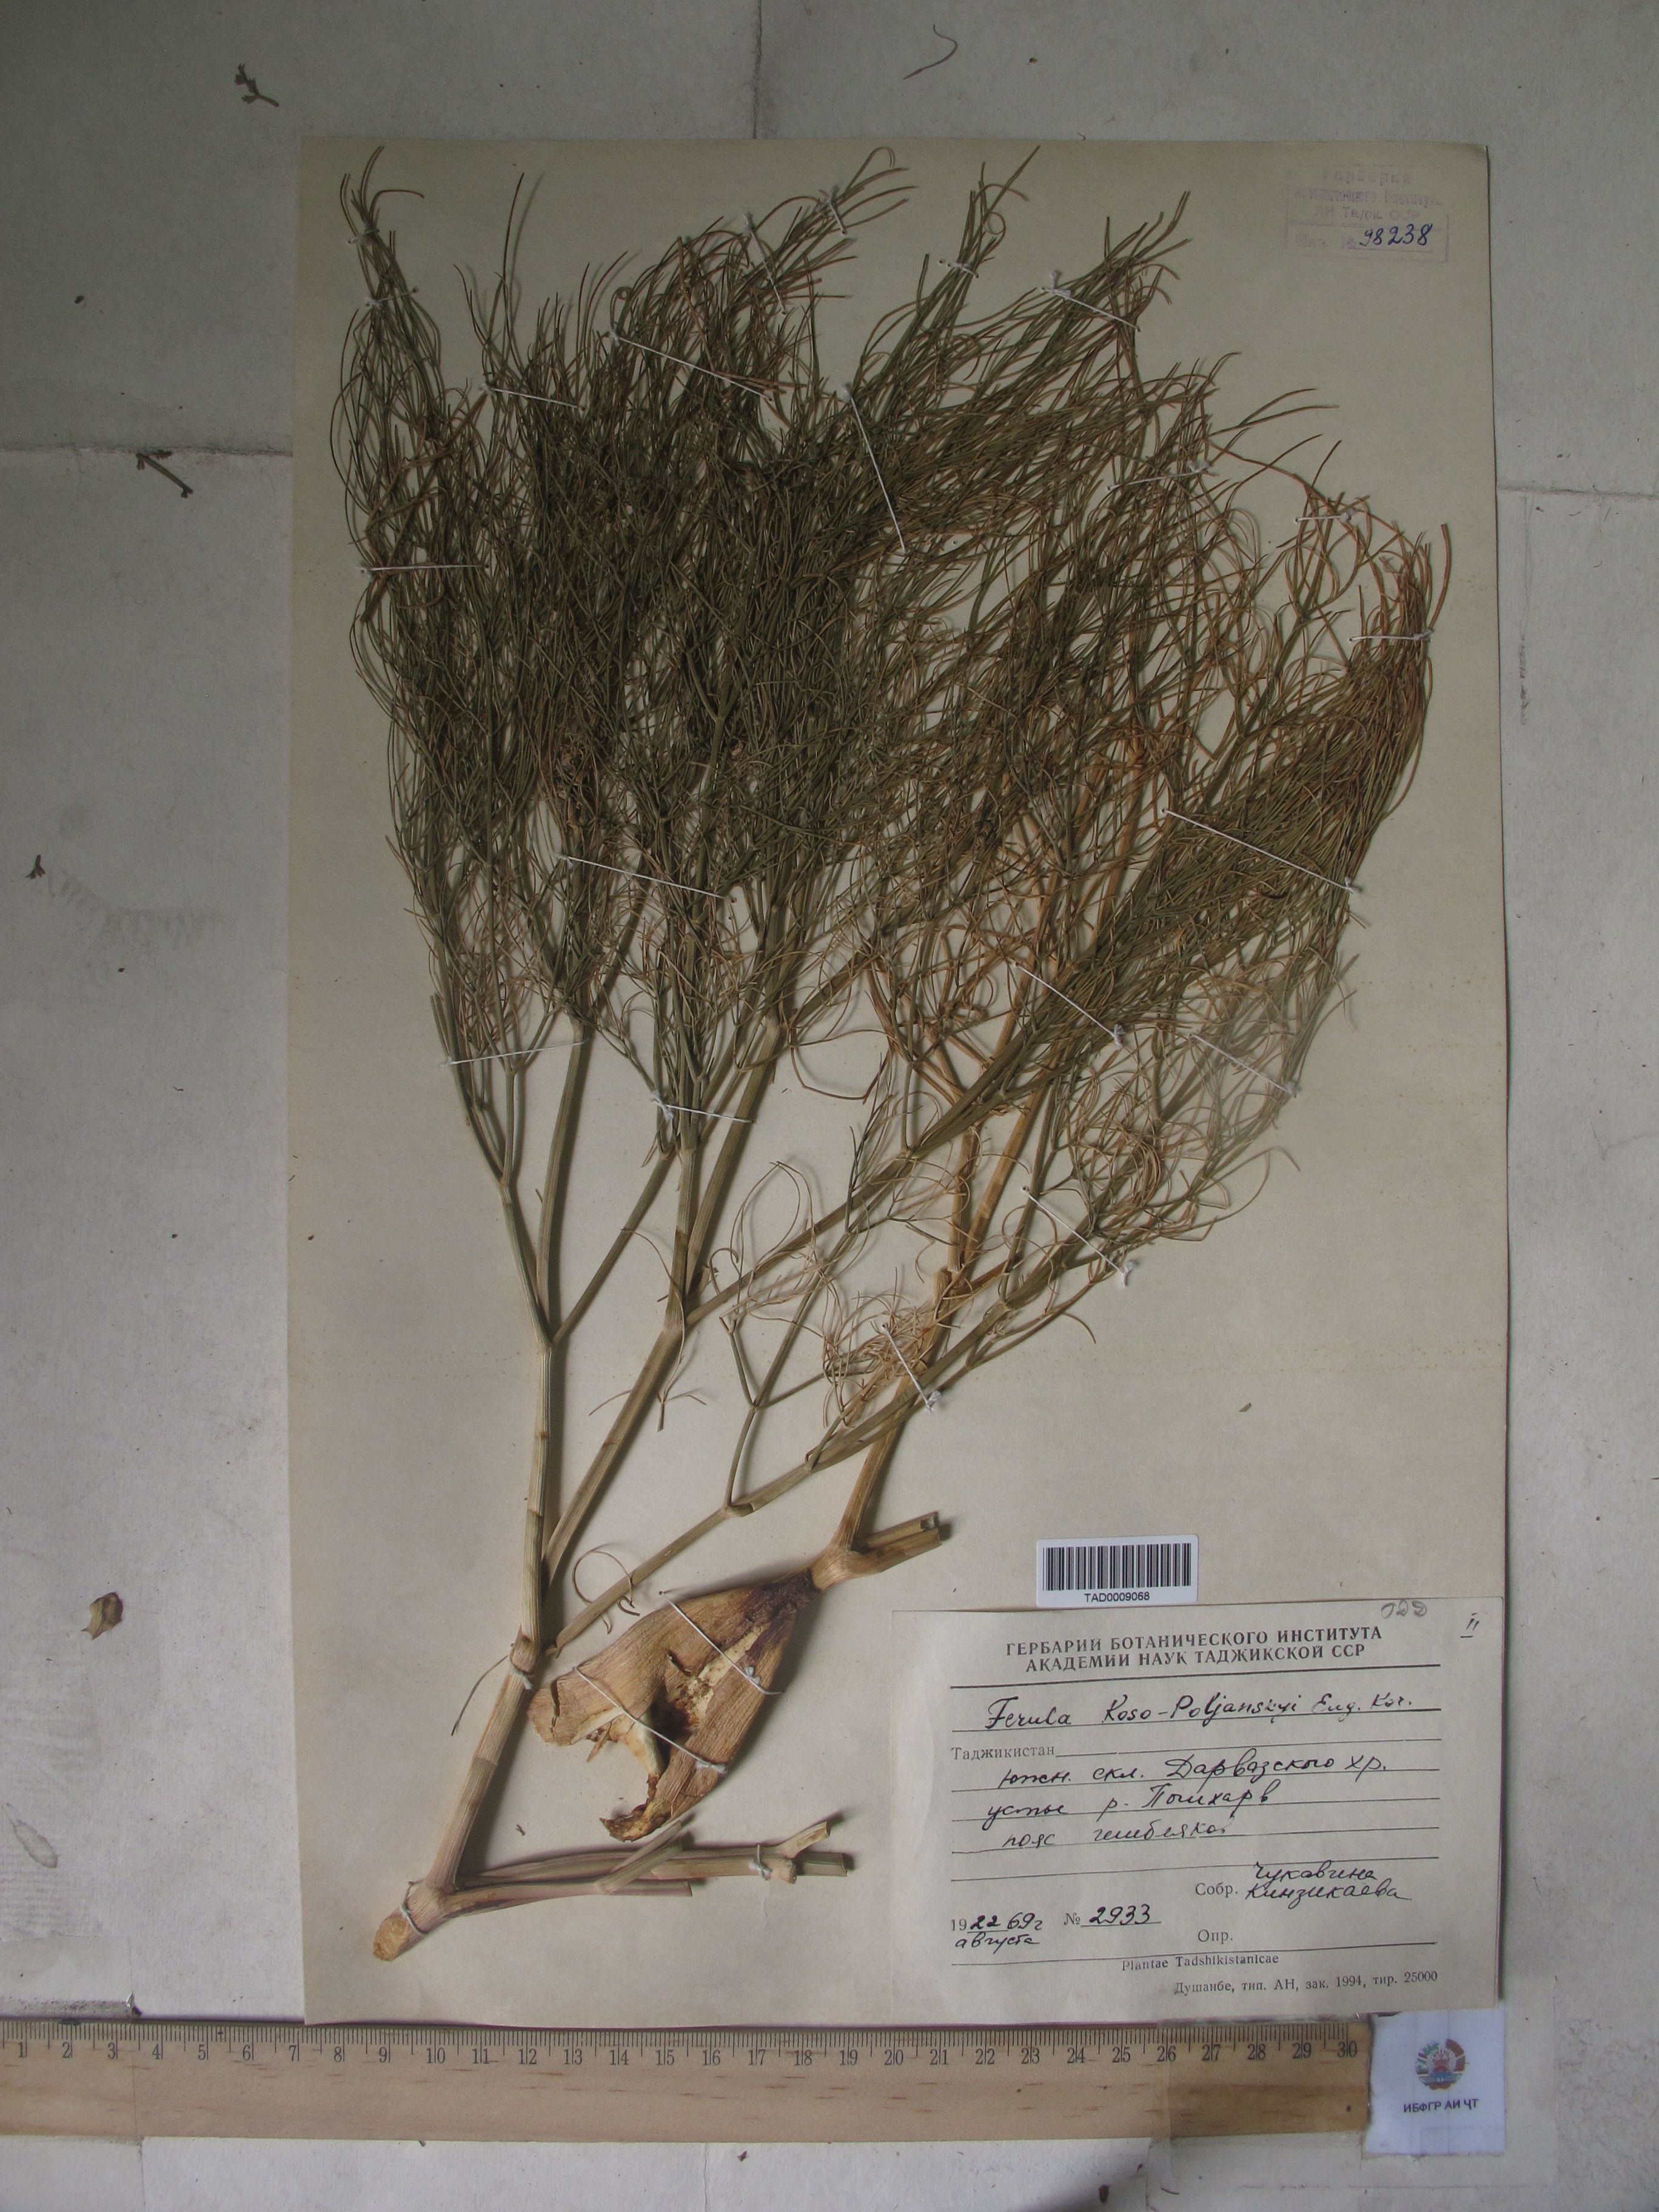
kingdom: Plantae
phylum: Tracheophyta
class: Magnoliopsida
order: Apiales
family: Apiaceae
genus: Ferula
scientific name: Ferula
